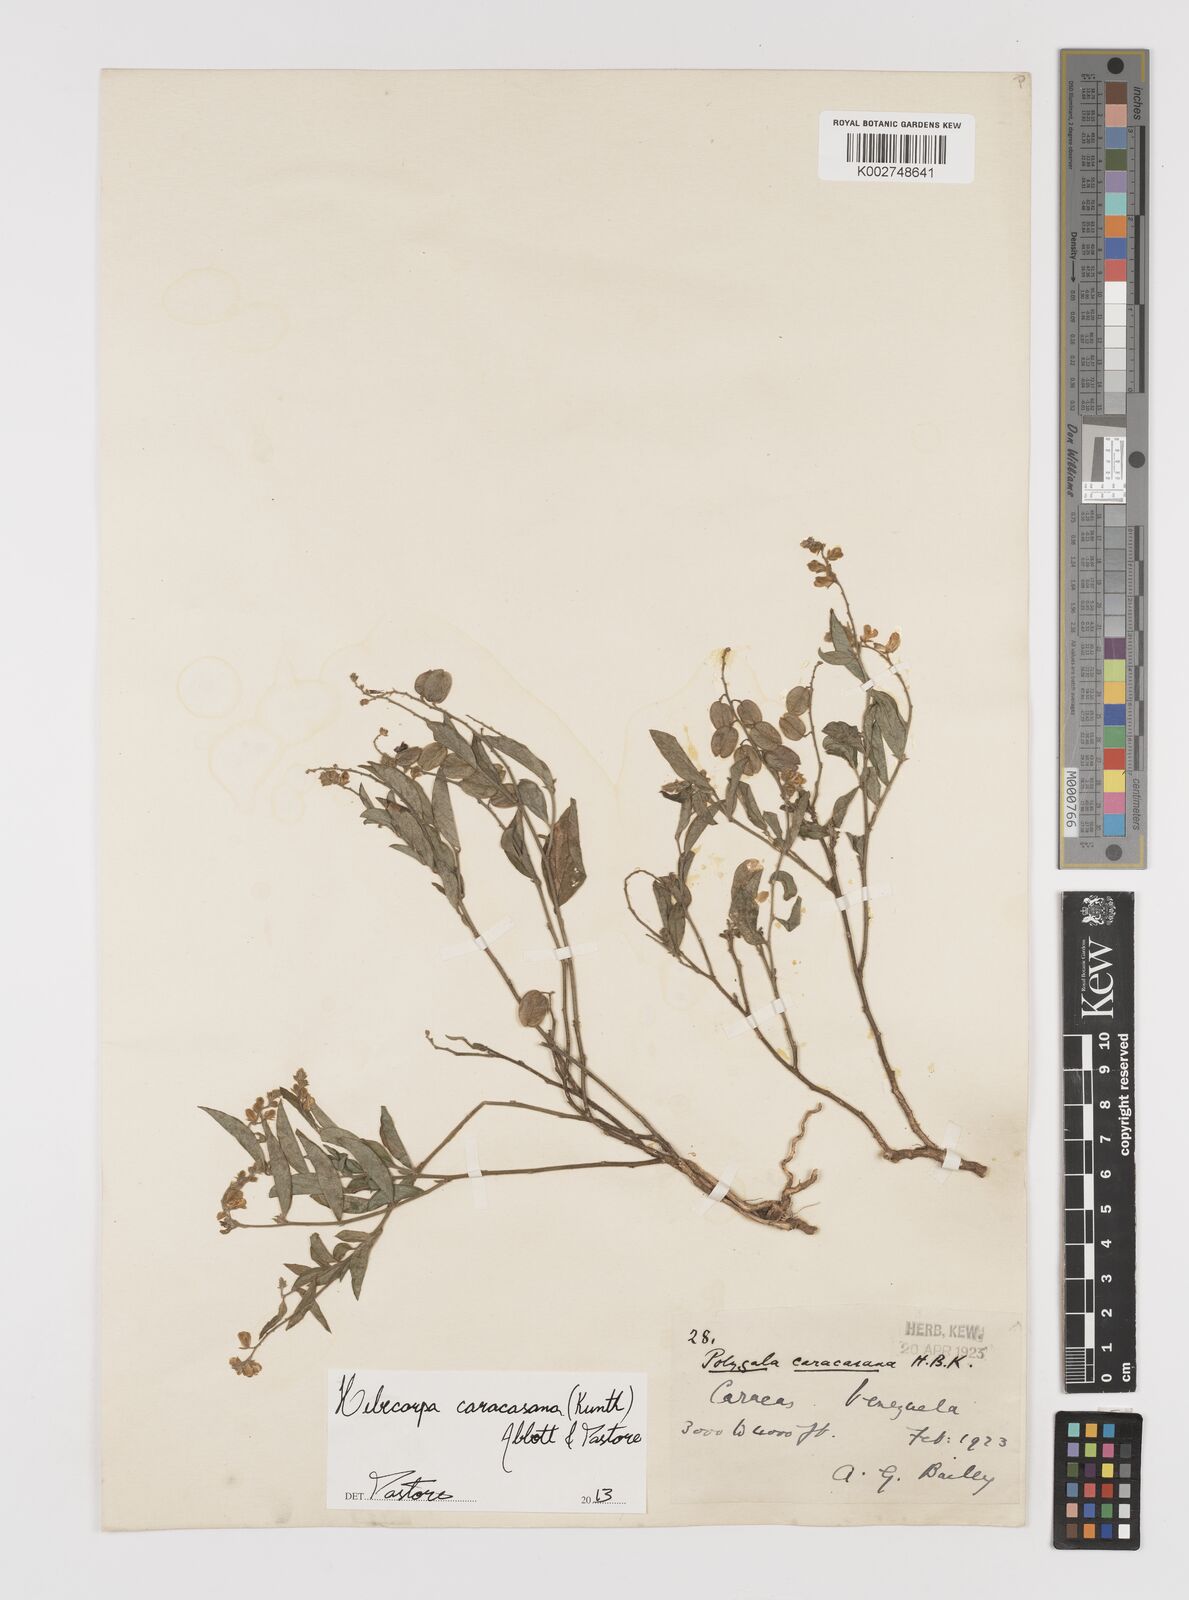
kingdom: Plantae
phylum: Tracheophyta
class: Magnoliopsida
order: Fabales
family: Polygalaceae
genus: Hebecarpa
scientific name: Hebecarpa caracasana
